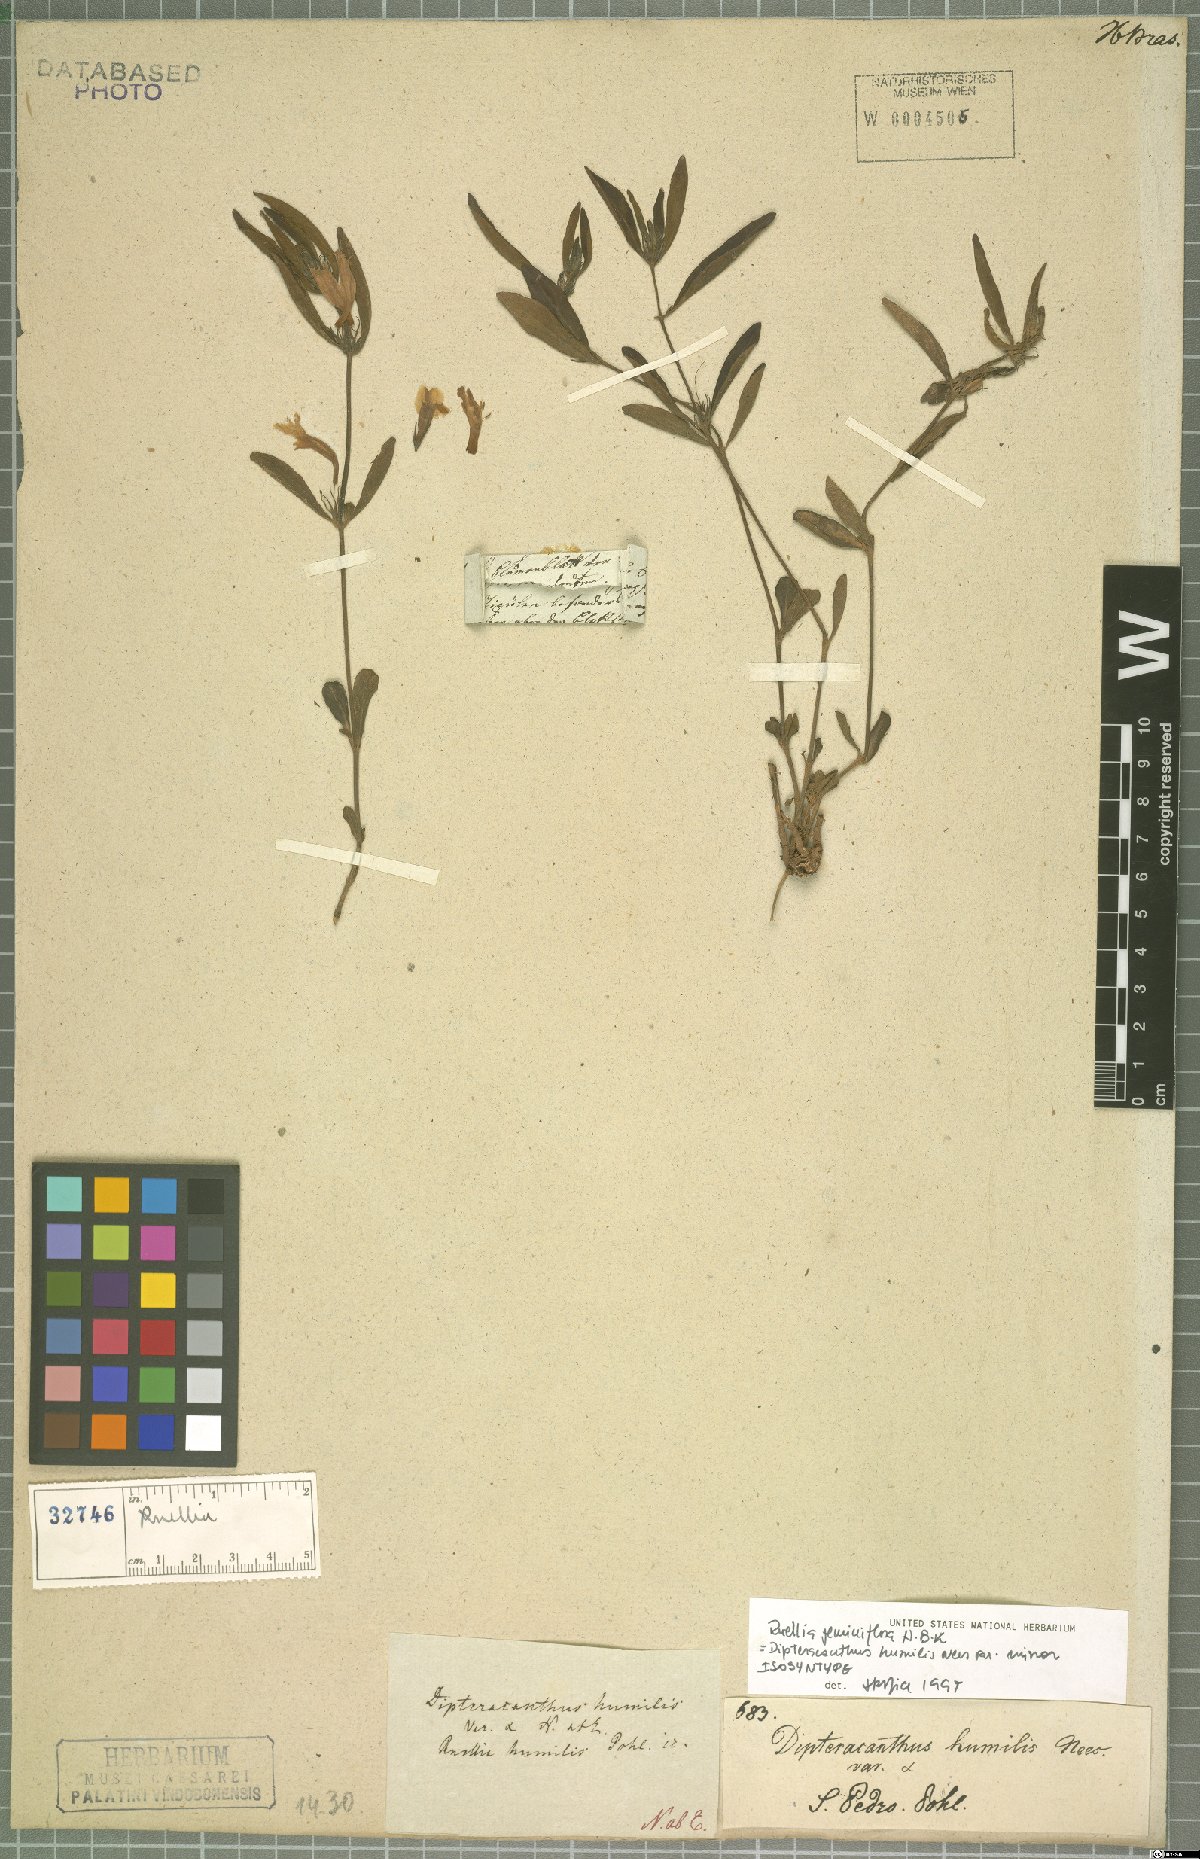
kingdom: Plantae
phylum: Tracheophyta
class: Magnoliopsida
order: Lamiales
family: Acanthaceae
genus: Ruellia
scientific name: Ruellia geminiflora
